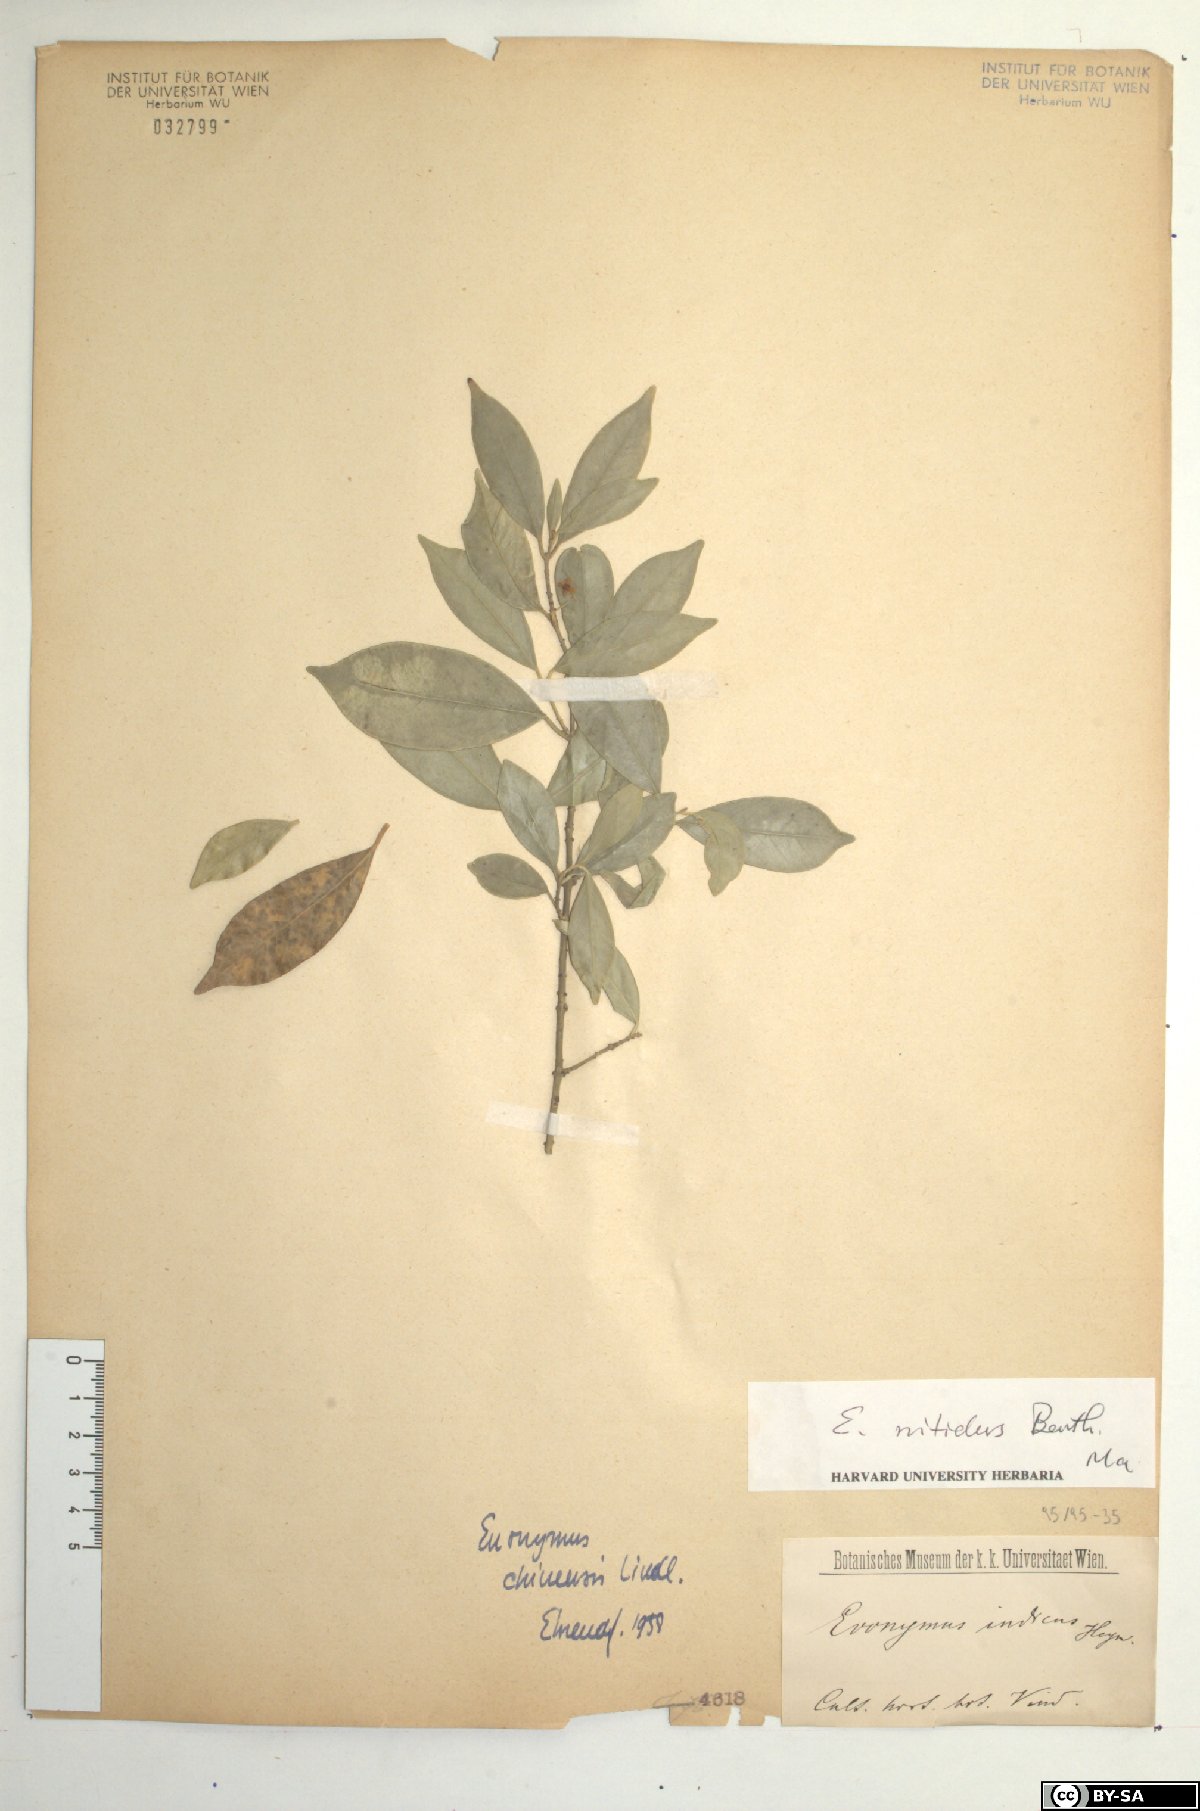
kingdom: Plantae
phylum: Tracheophyta
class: Magnoliopsida
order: Celastrales
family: Celastraceae
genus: Euonymus
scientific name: Euonymus nitidus
